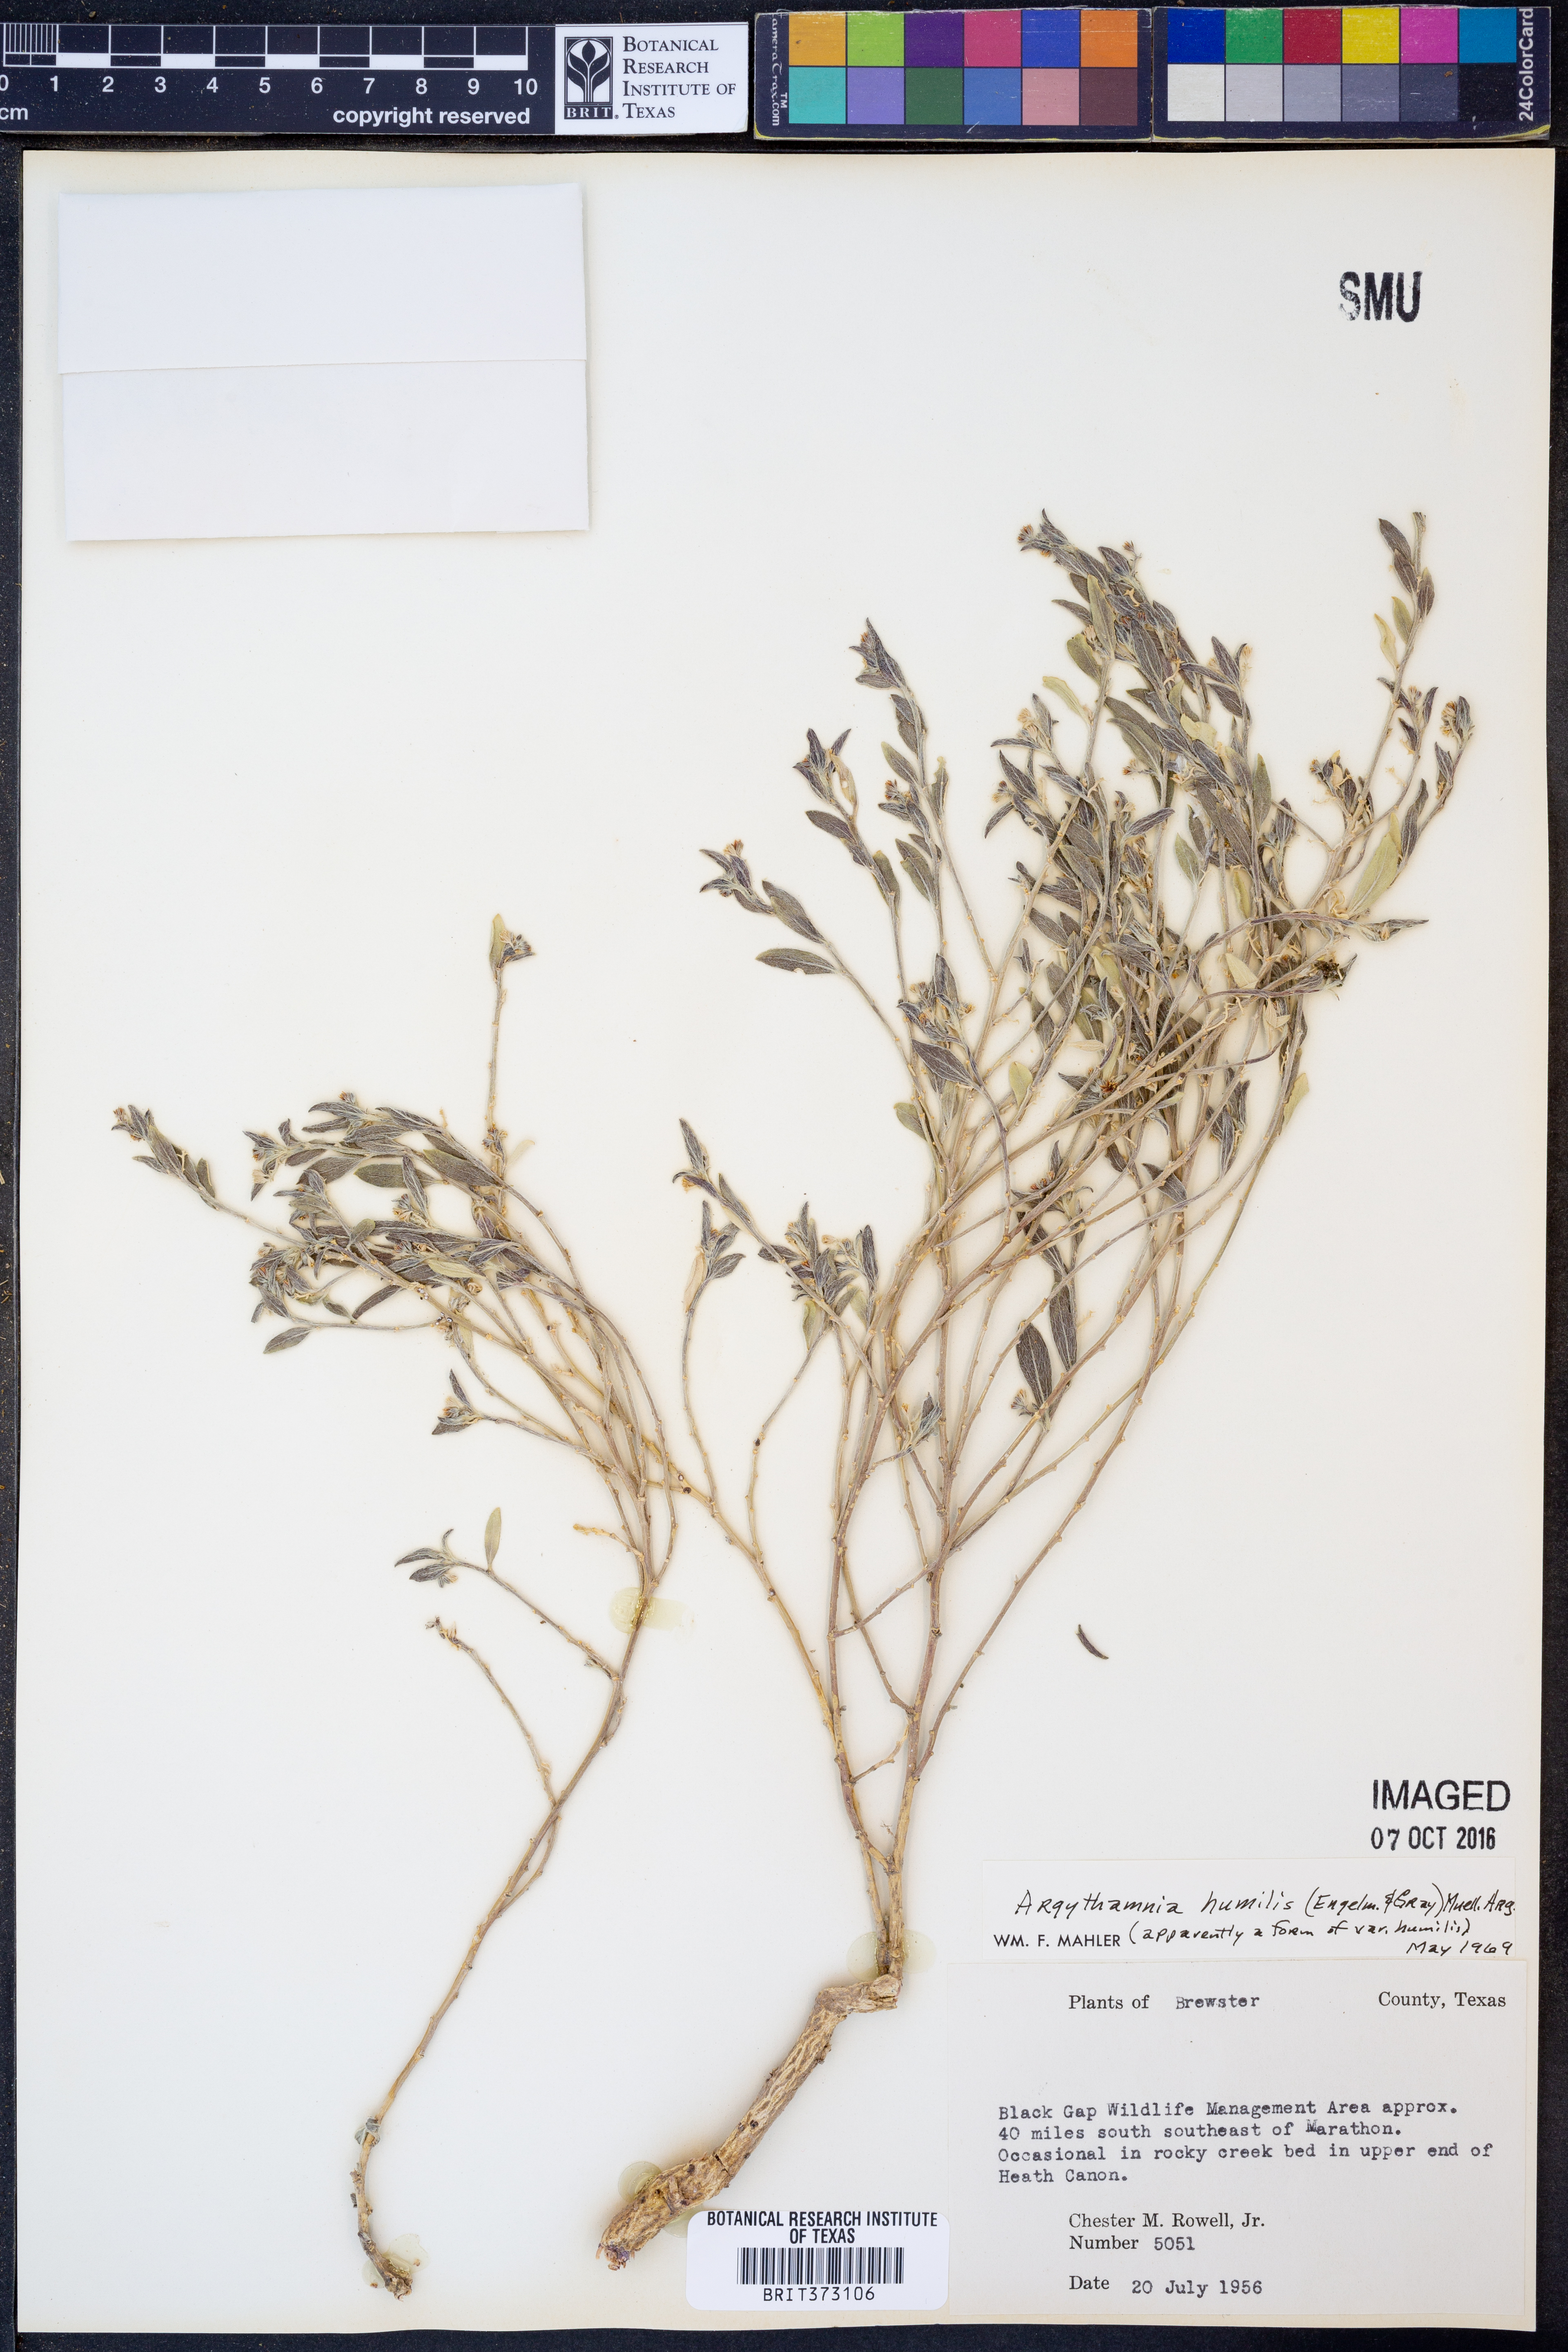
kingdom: Plantae
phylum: Tracheophyta
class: Magnoliopsida
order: Malpighiales
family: Euphorbiaceae
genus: Ditaxis
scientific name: Ditaxis humilis
